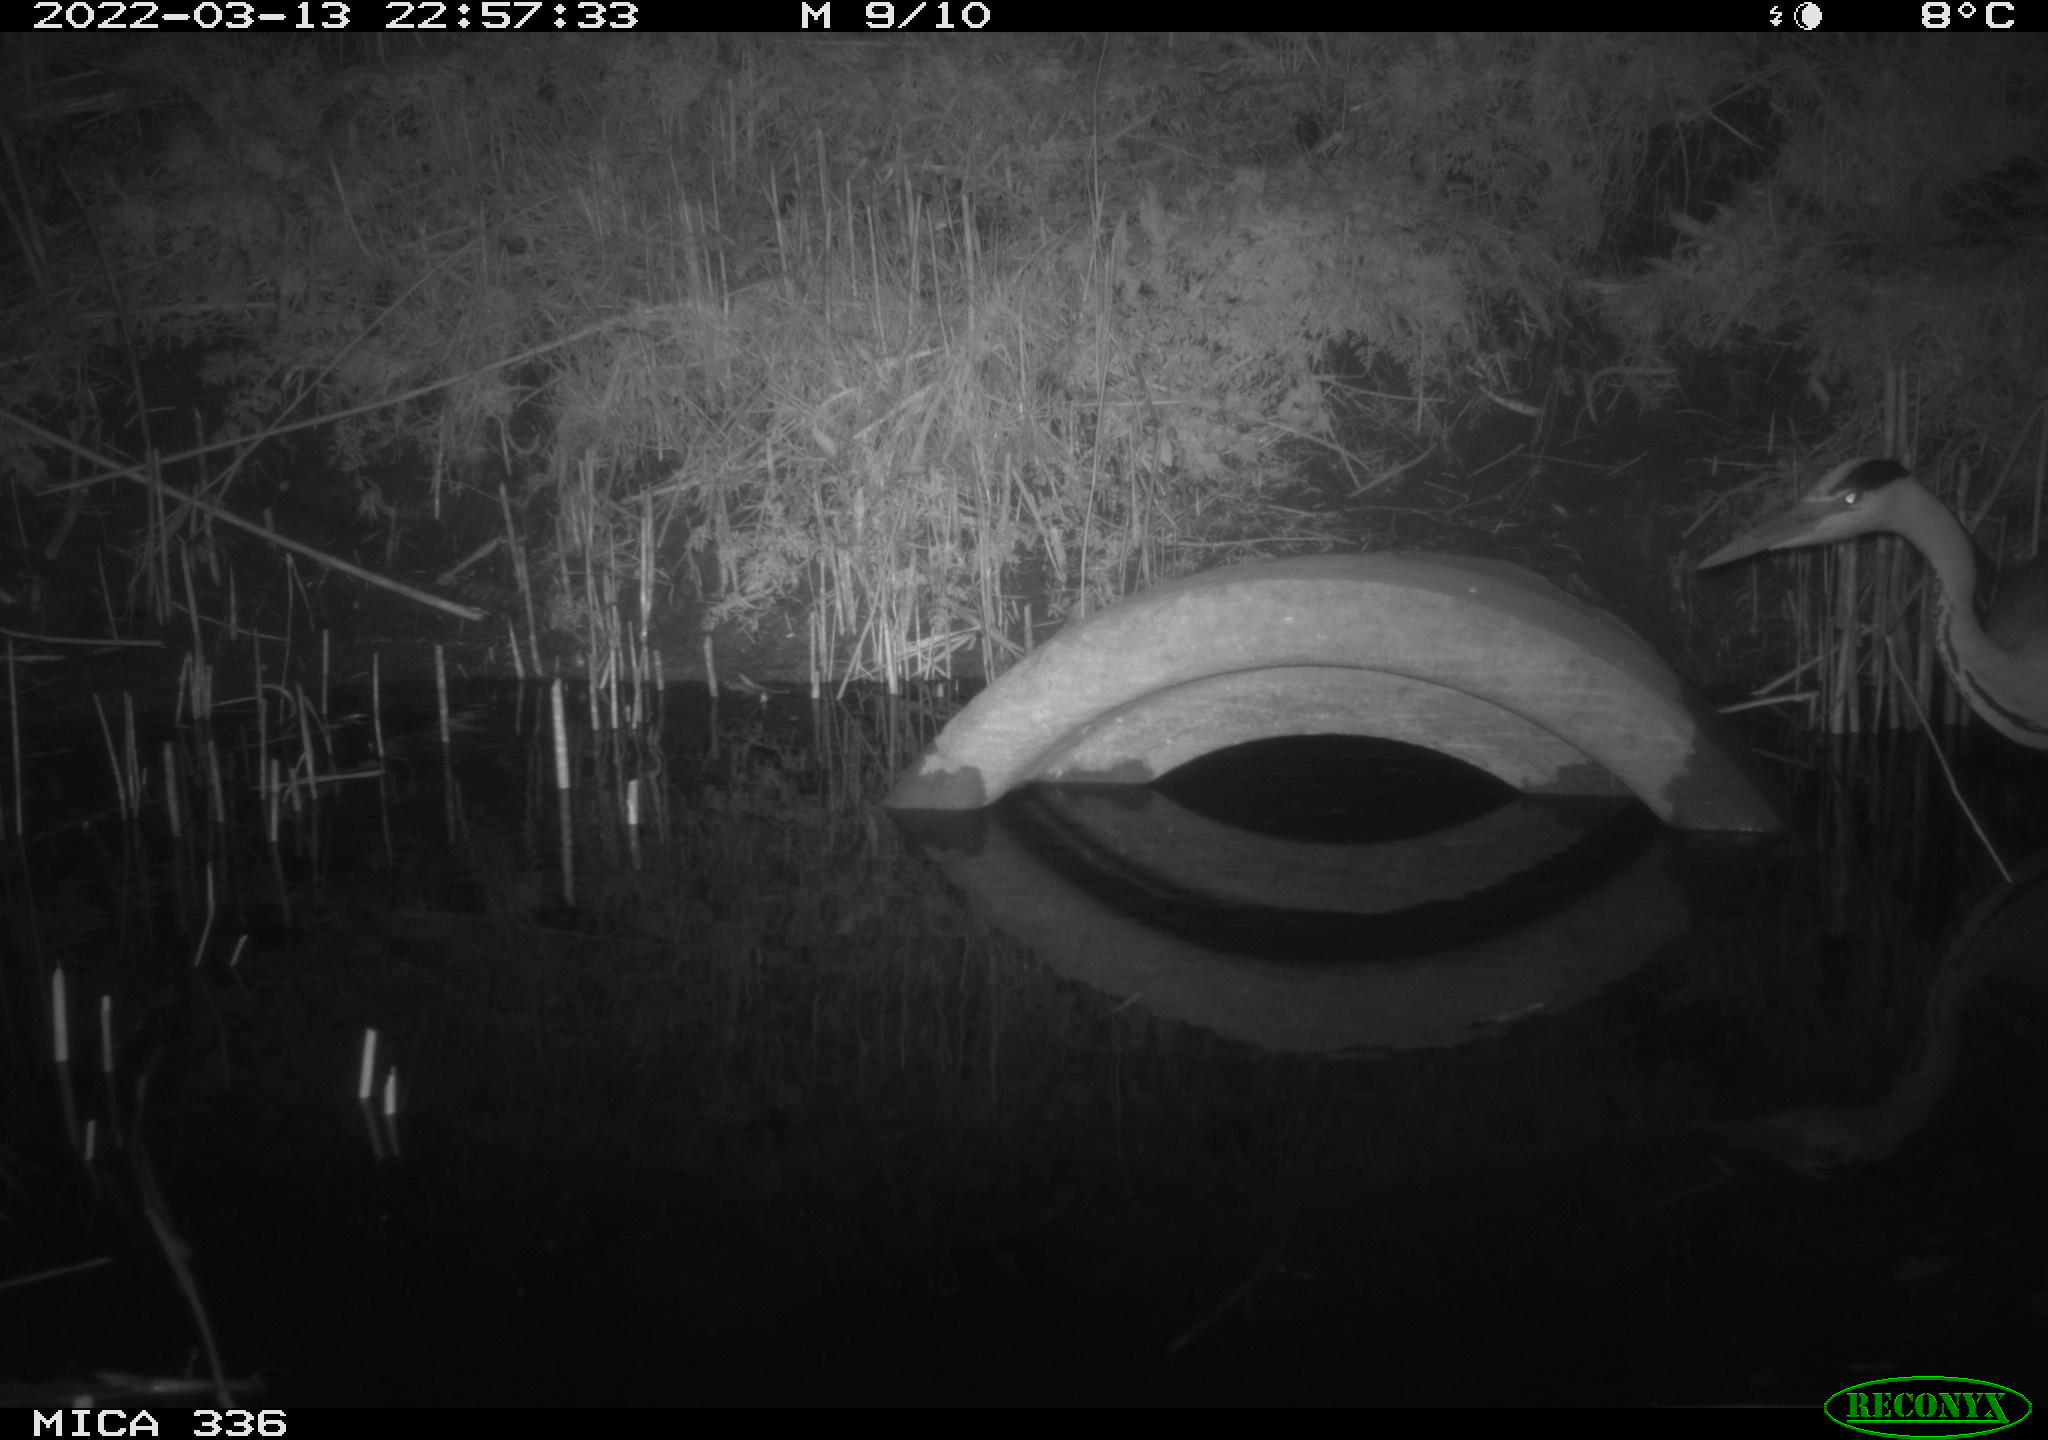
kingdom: Animalia
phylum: Chordata
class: Aves
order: Pelecaniformes
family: Ardeidae
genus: Ardea
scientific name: Ardea cinerea
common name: Grey heron
